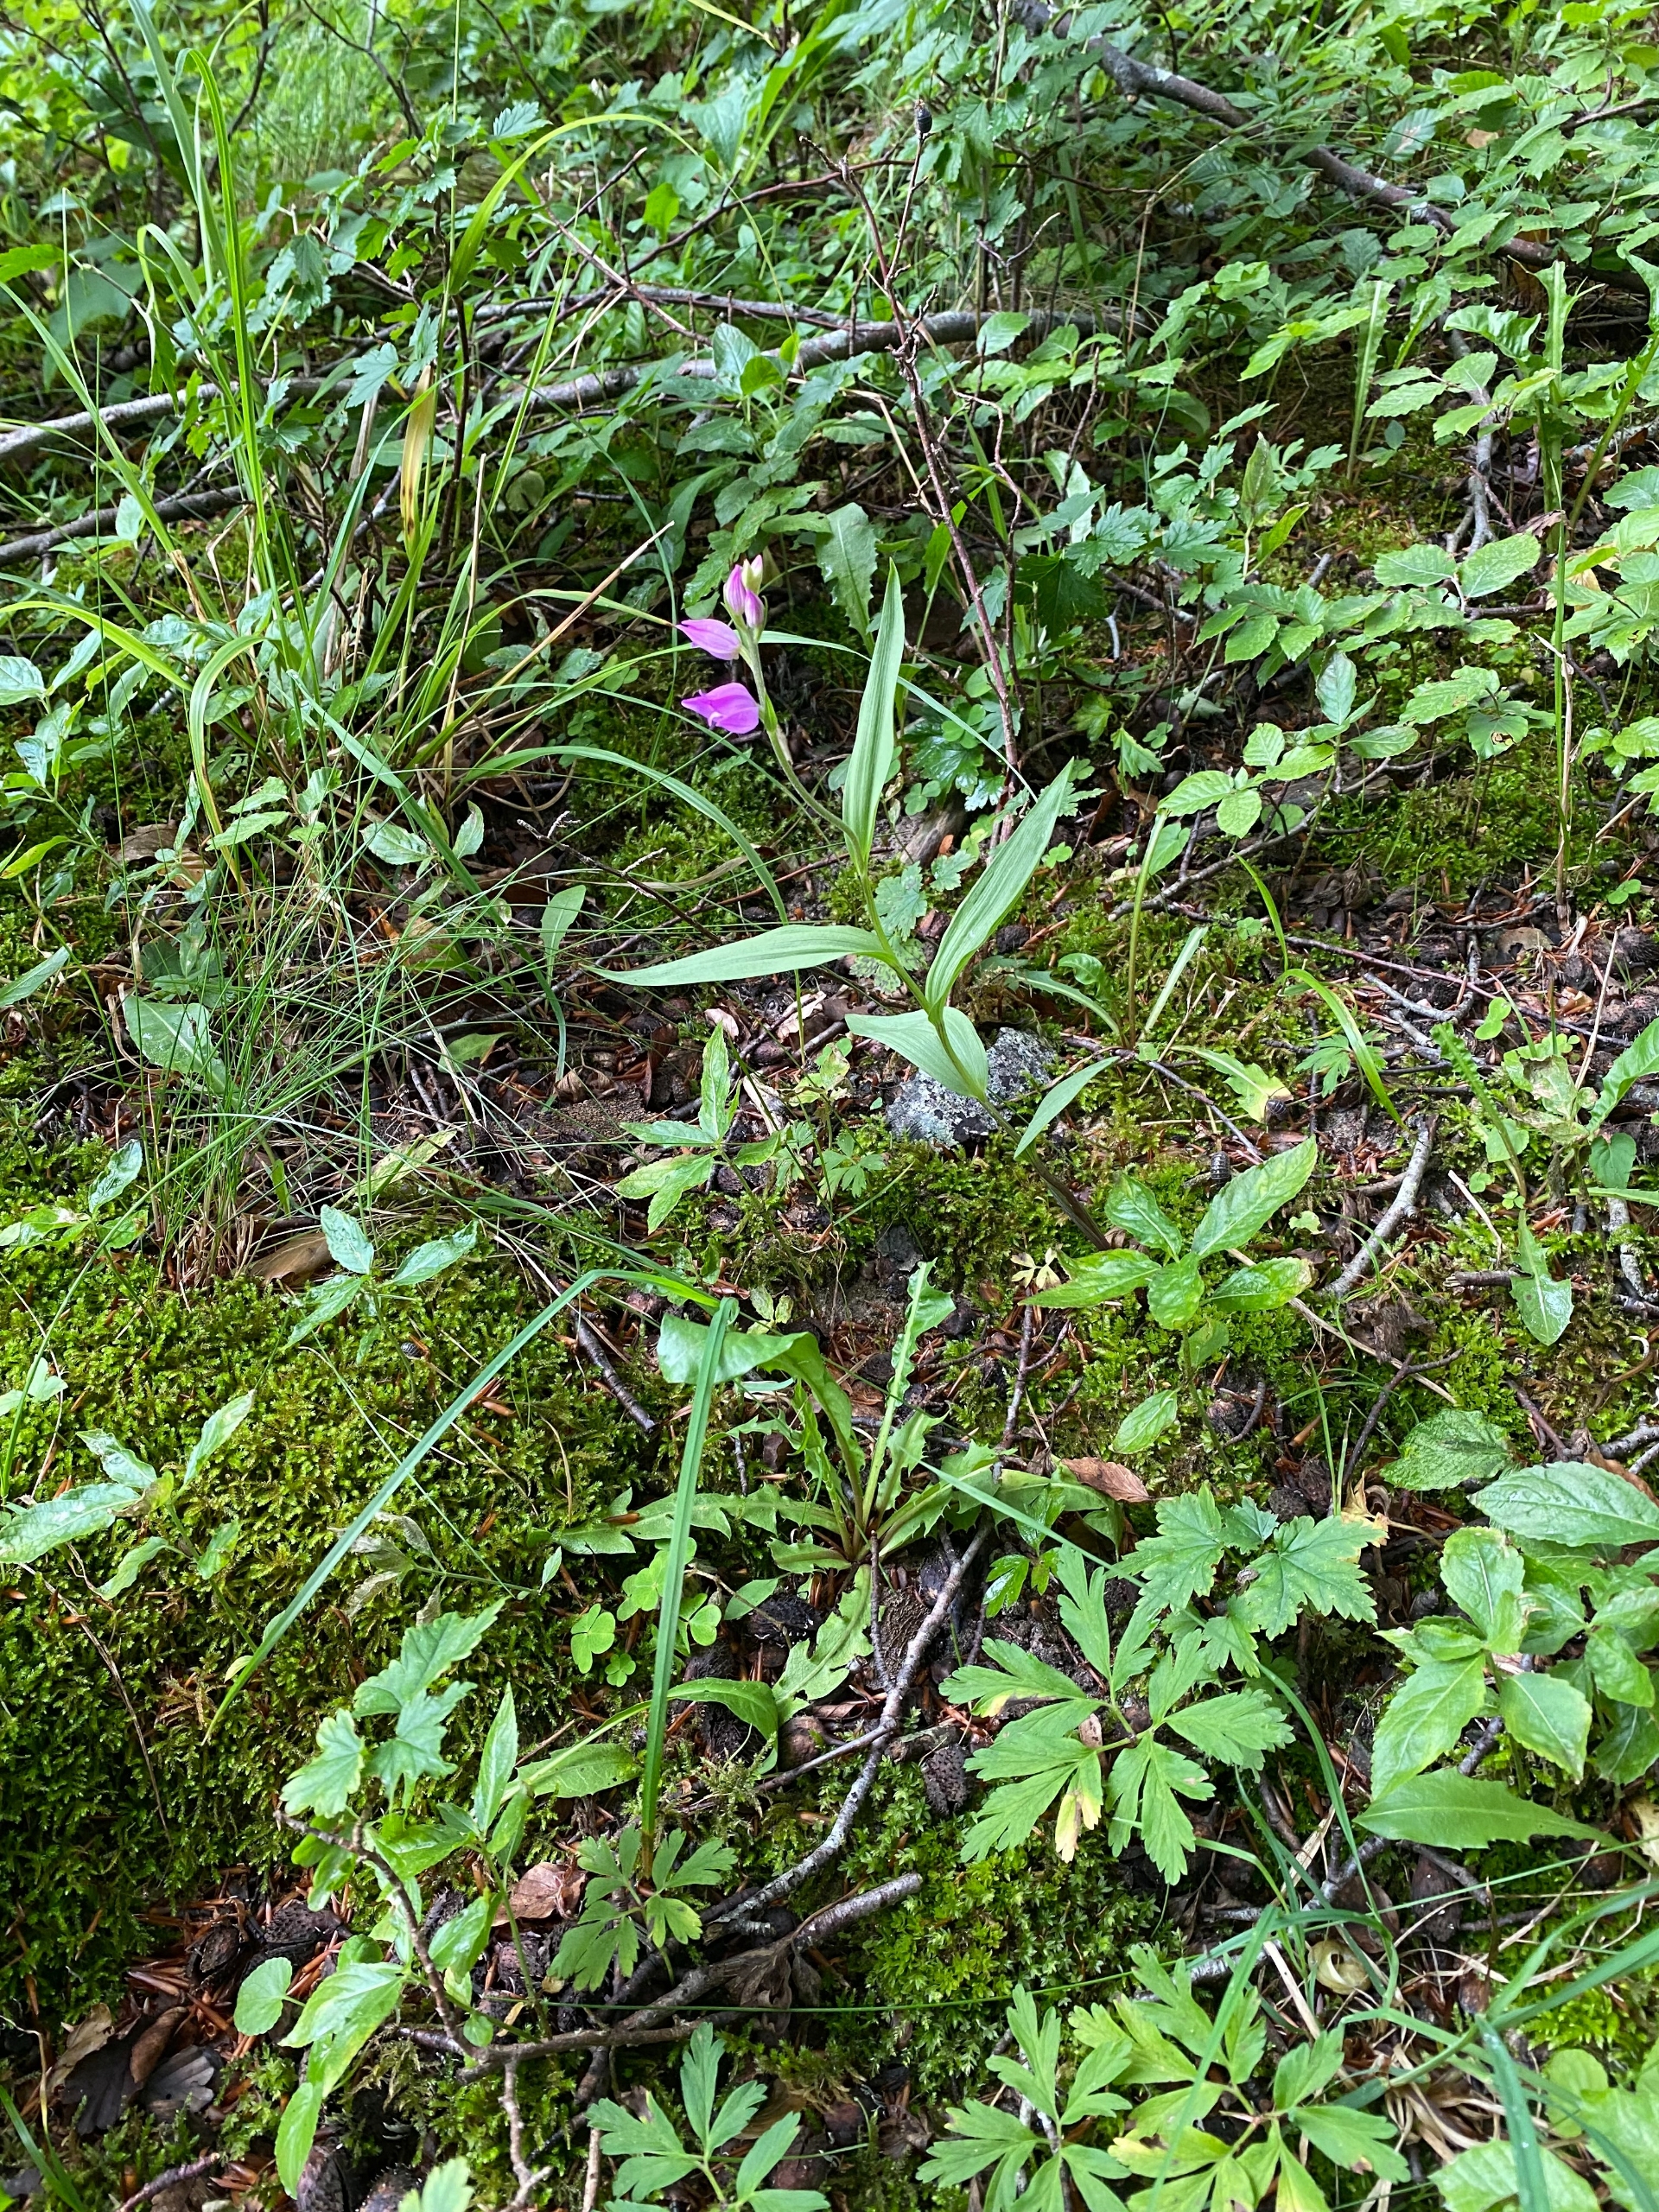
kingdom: Plantae
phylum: Tracheophyta
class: Liliopsida
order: Asparagales
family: Orchidaceae
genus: Cephalanthera
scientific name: Cephalanthera rubra
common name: Rød skovlilje
